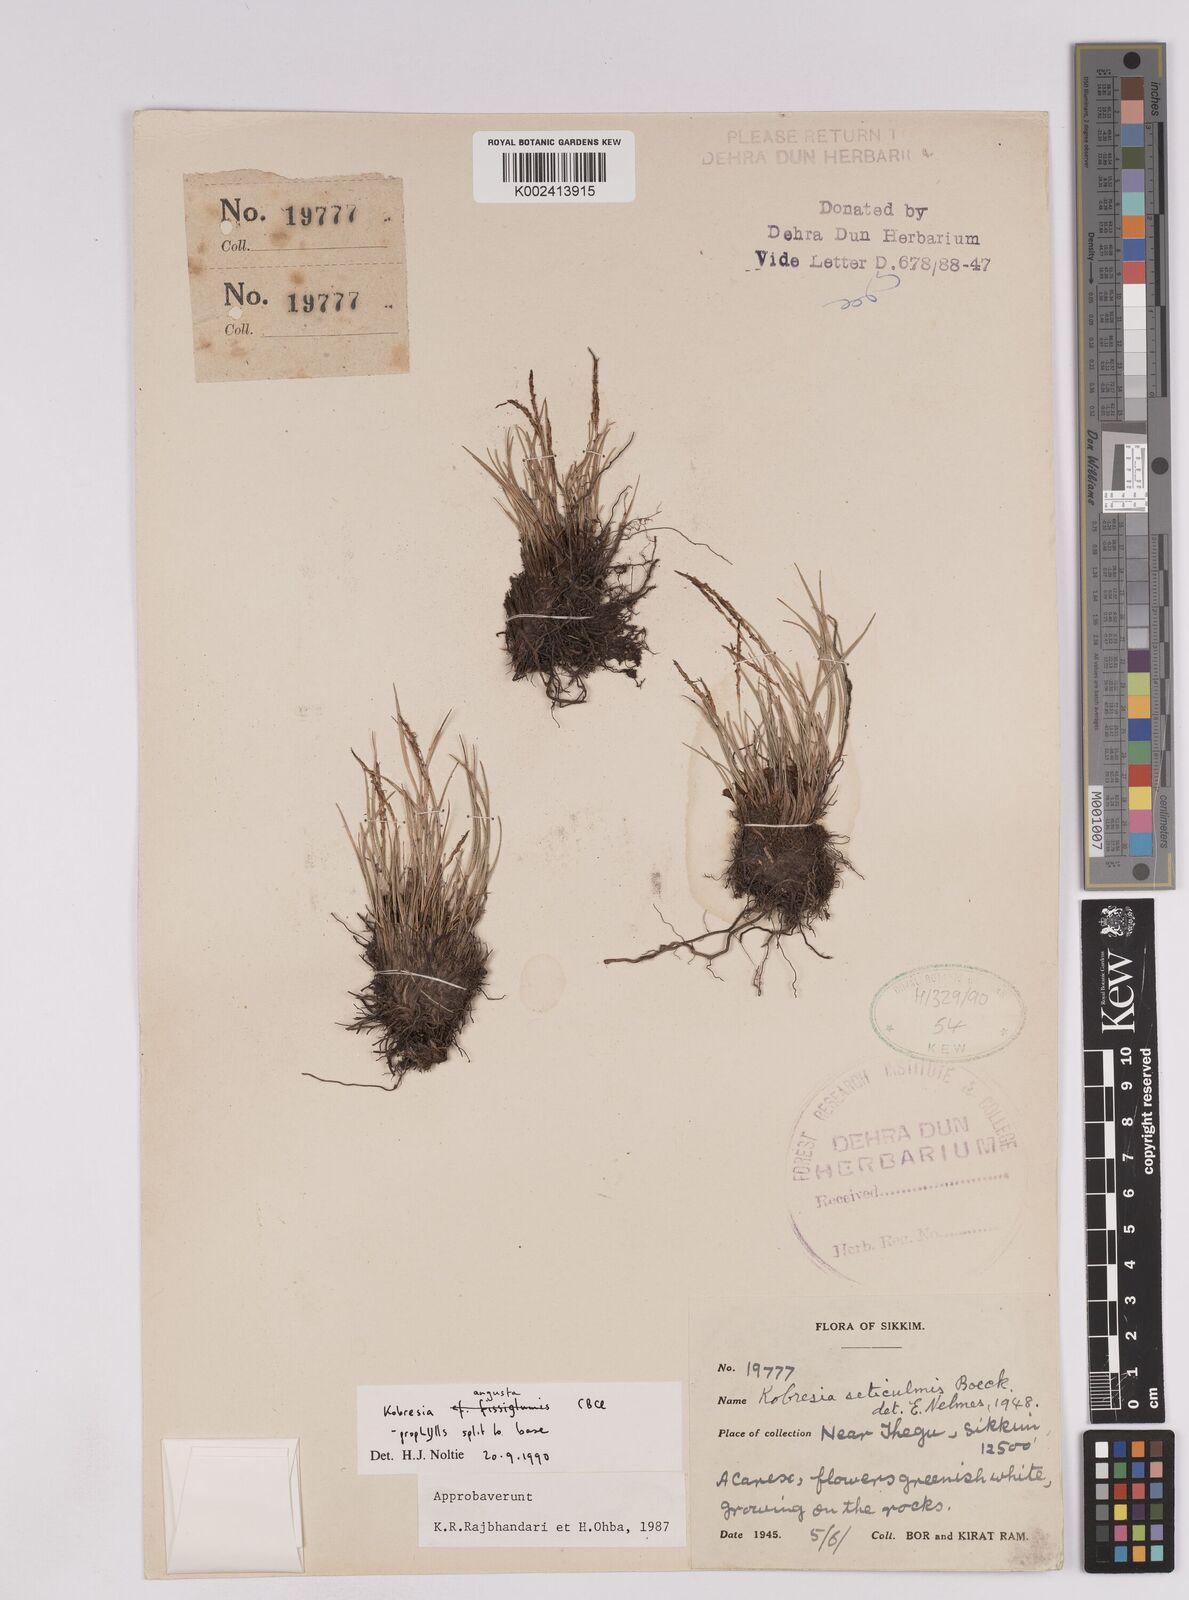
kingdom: Plantae
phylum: Tracheophyta
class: Liliopsida
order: Poales
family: Cyperaceae
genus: Carex
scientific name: Carex esenbeckii
